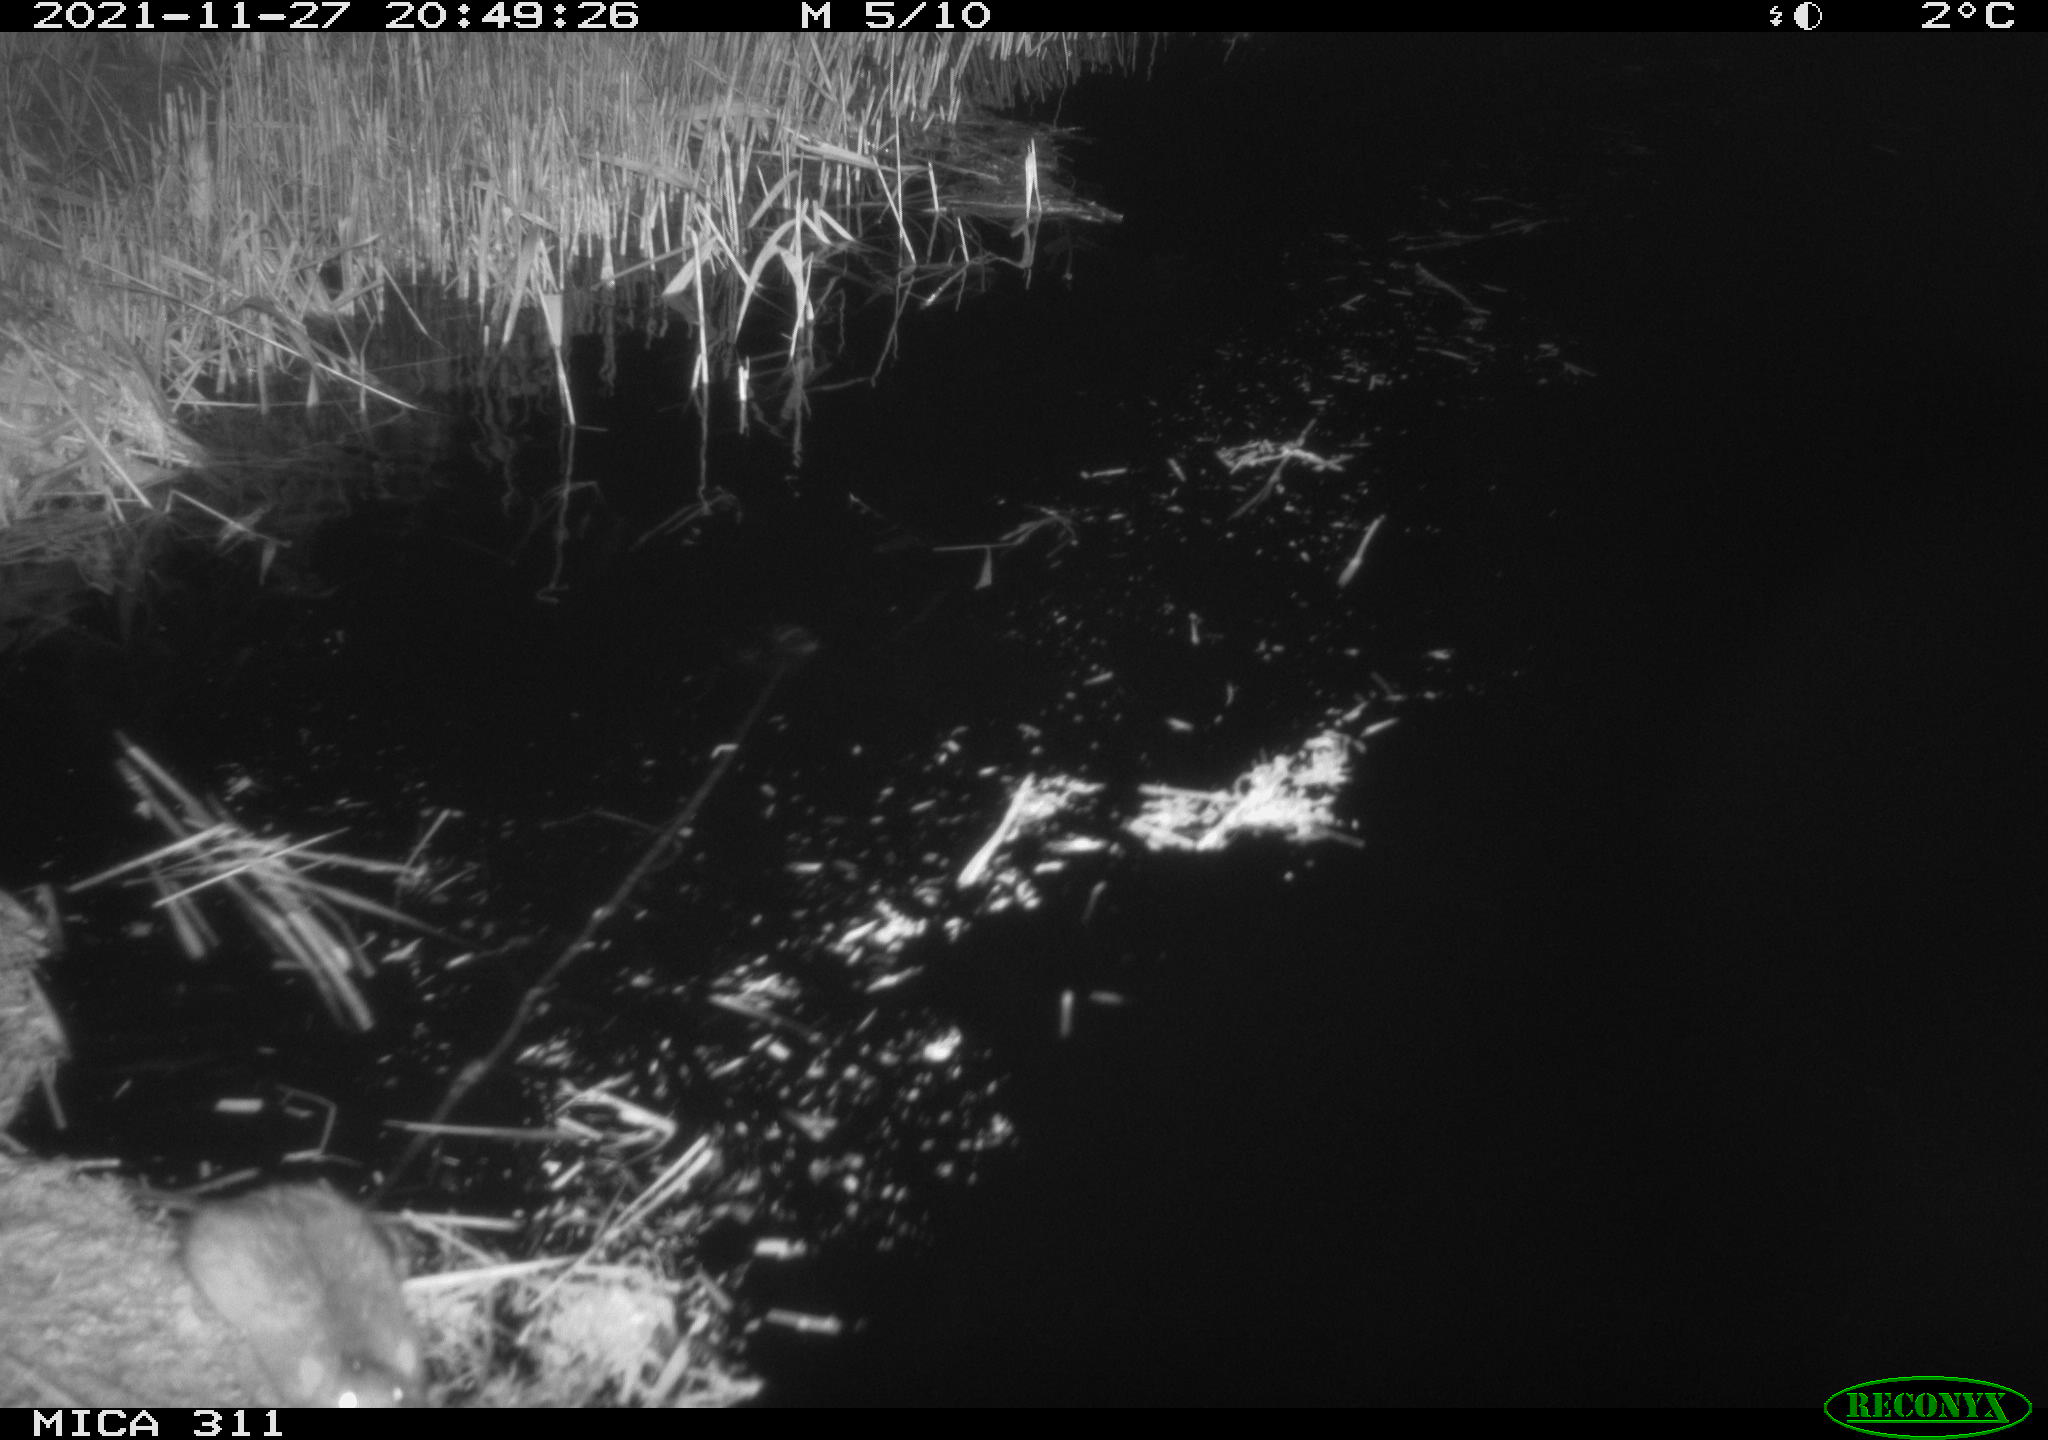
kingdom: Animalia
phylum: Chordata
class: Mammalia
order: Rodentia
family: Muridae
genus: Rattus
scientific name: Rattus norvegicus
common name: Brown rat
